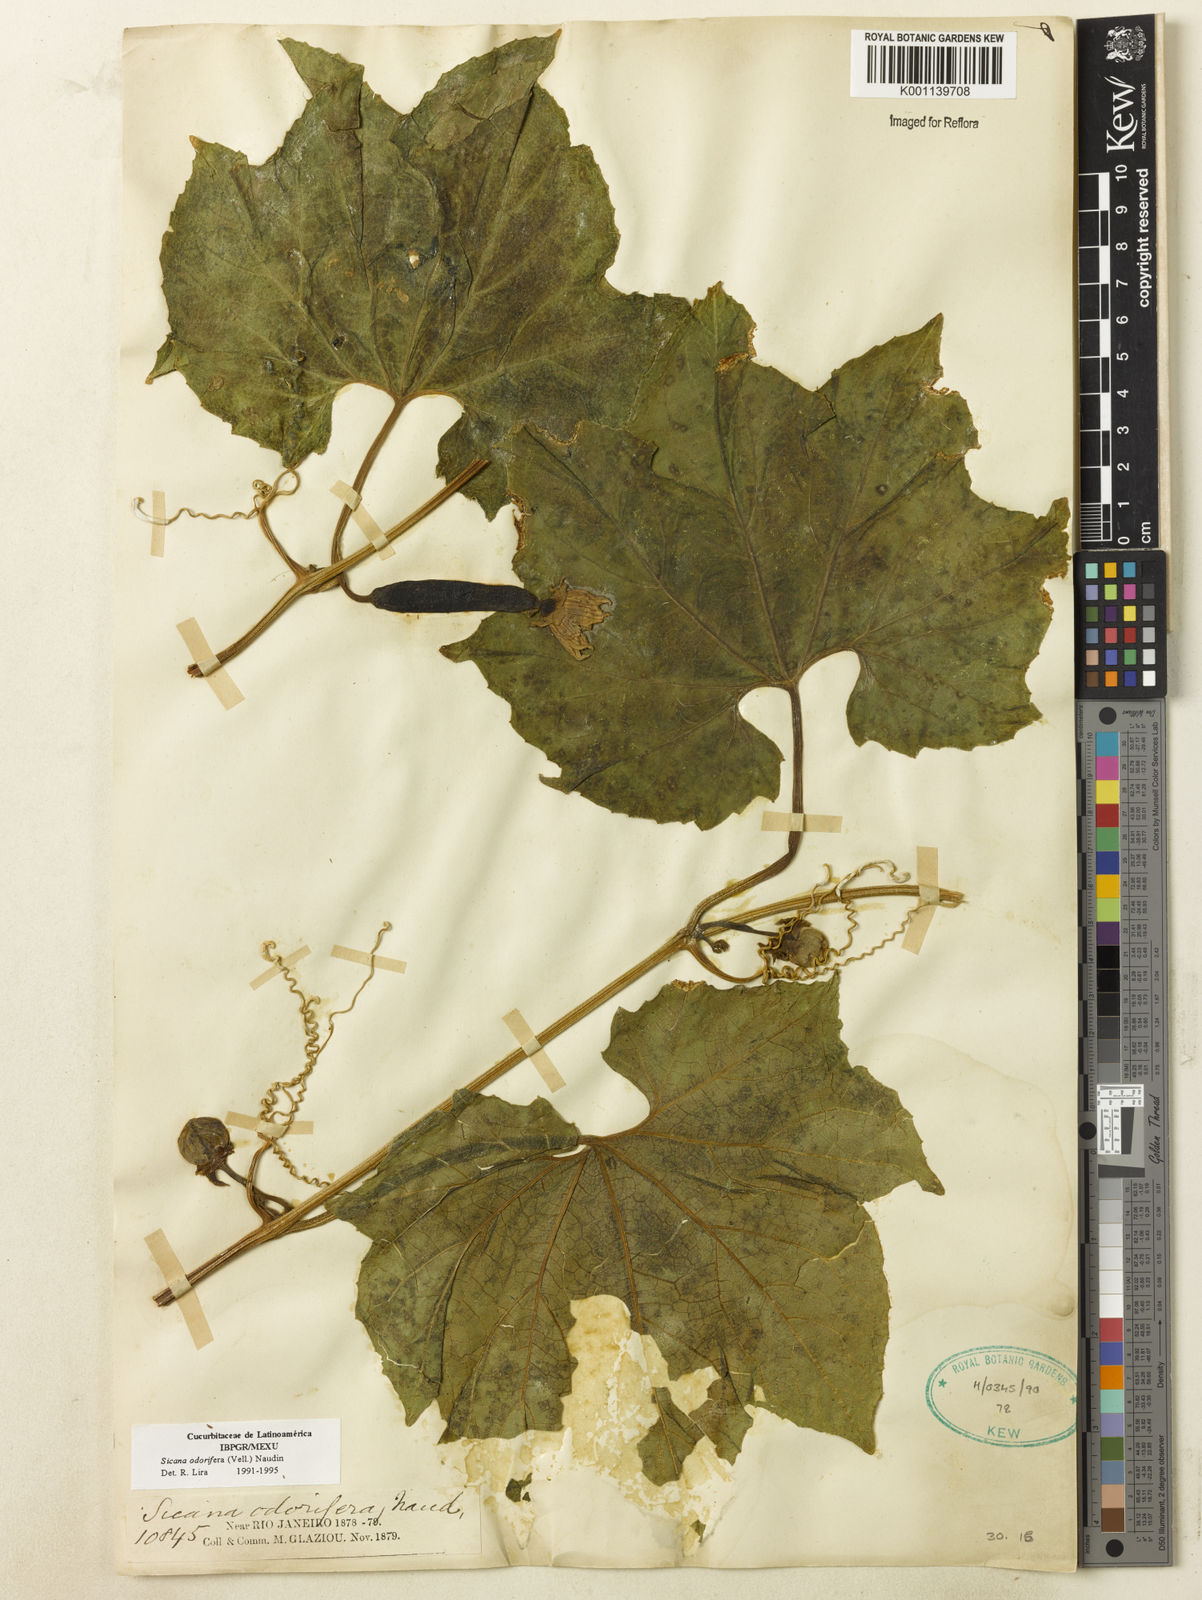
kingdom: Plantae
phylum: Tracheophyta
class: Magnoliopsida
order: Cucurbitales
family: Cucurbitaceae
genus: Sicana
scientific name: Sicana odorifera
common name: Casabanana
